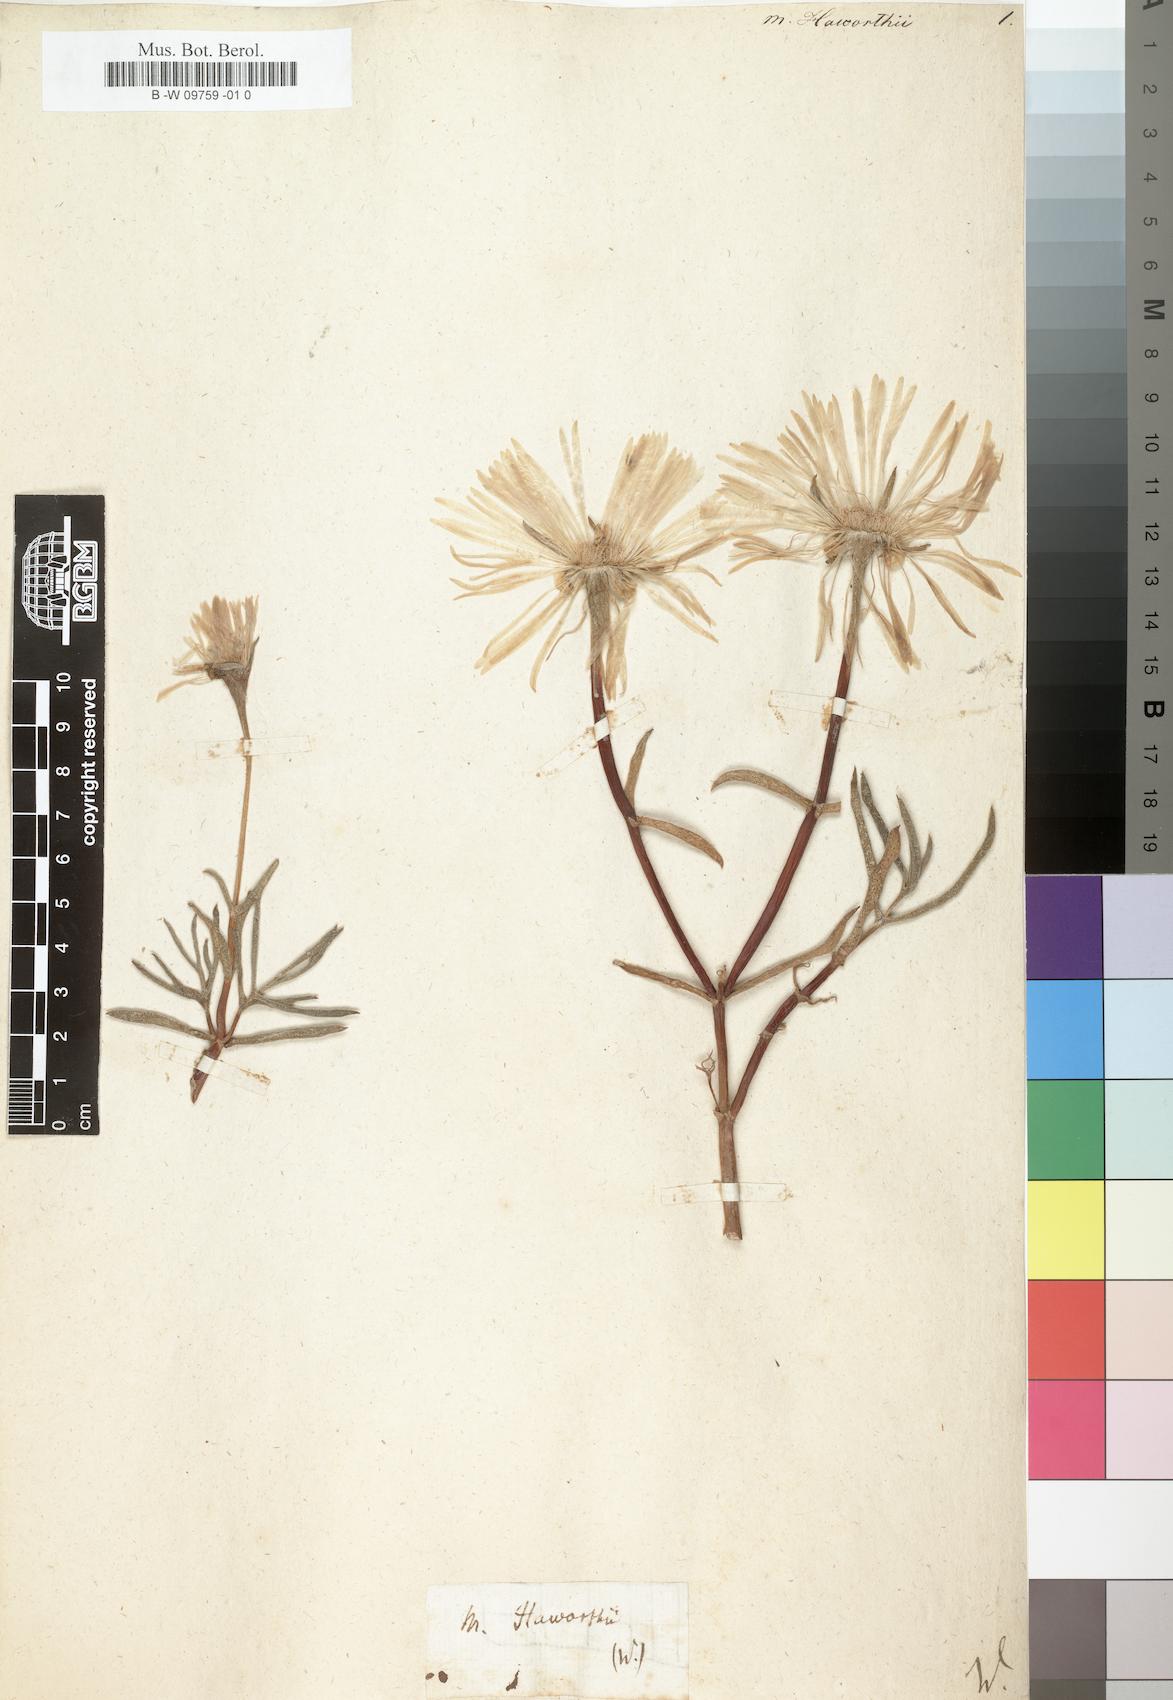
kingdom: Plantae
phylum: Tracheophyta
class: Magnoliopsida
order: Caryophyllales
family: Aizoaceae
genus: Lampranthus
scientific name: Lampranthus
